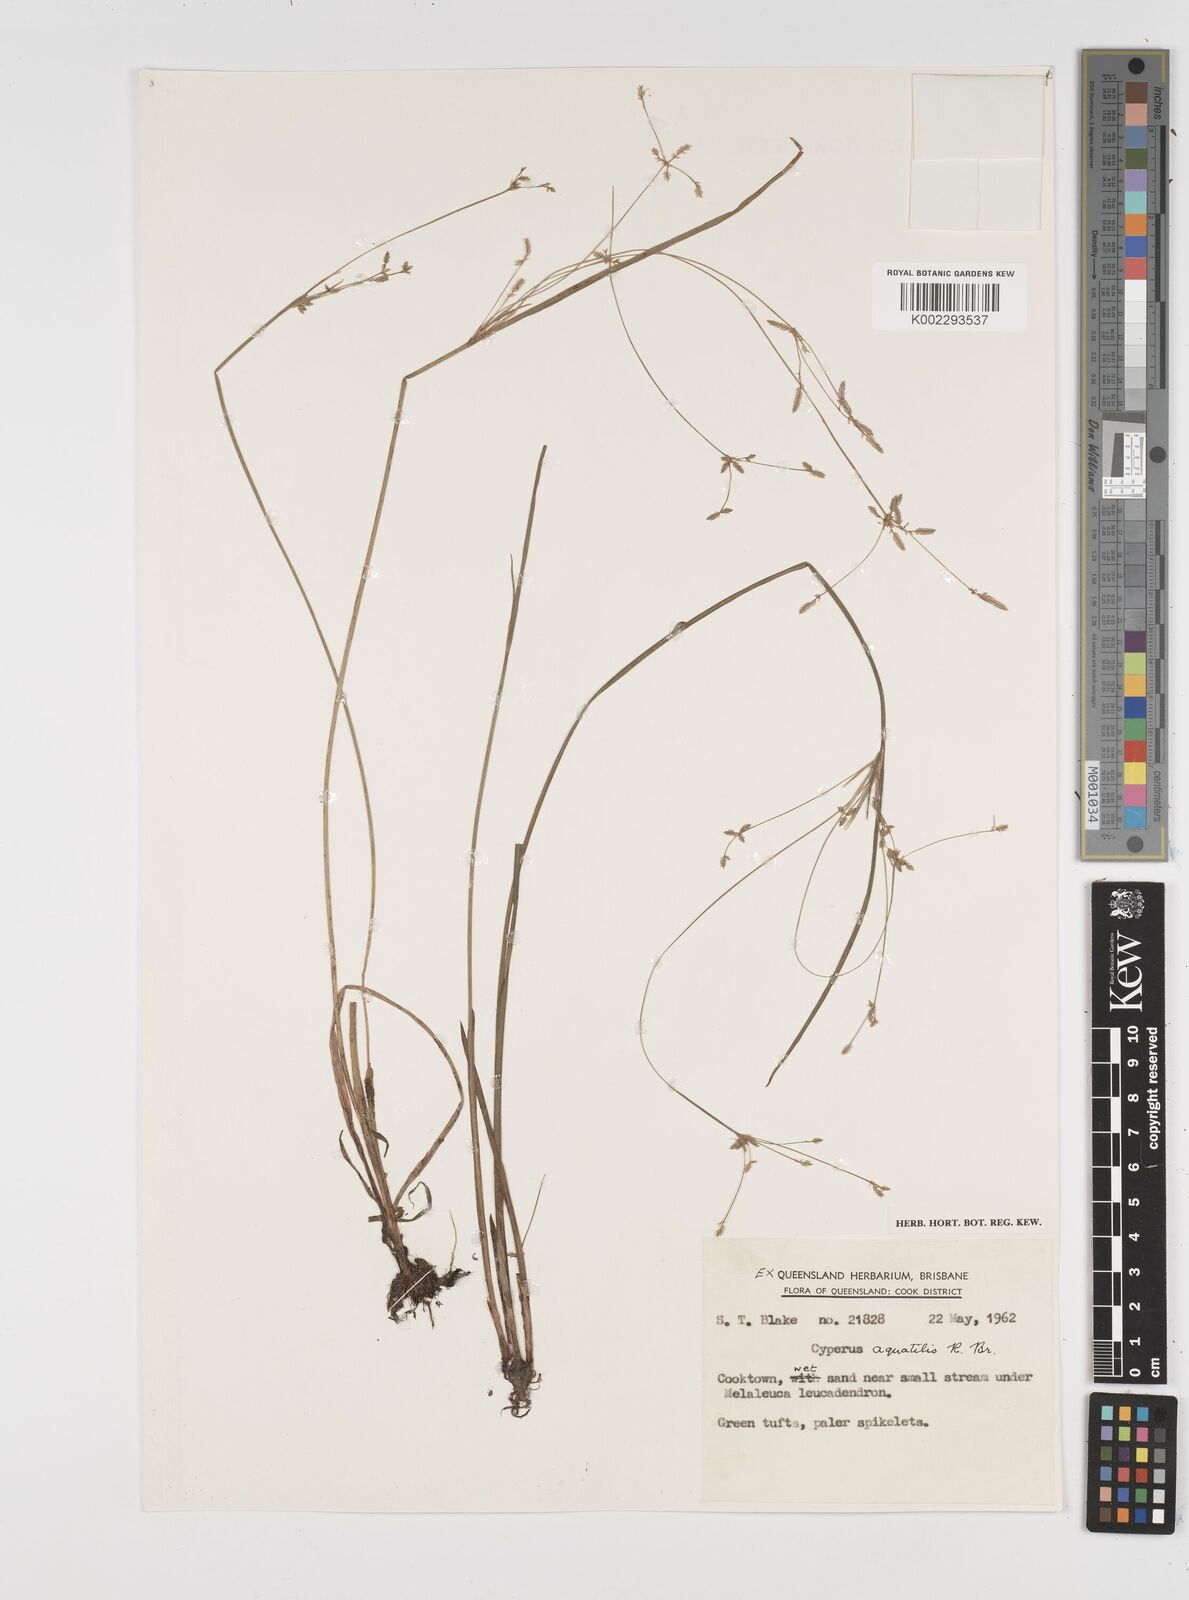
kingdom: Plantae
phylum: Tracheophyta
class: Liliopsida
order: Poales
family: Cyperaceae
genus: Cyperus
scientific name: Cyperus aquatilis
